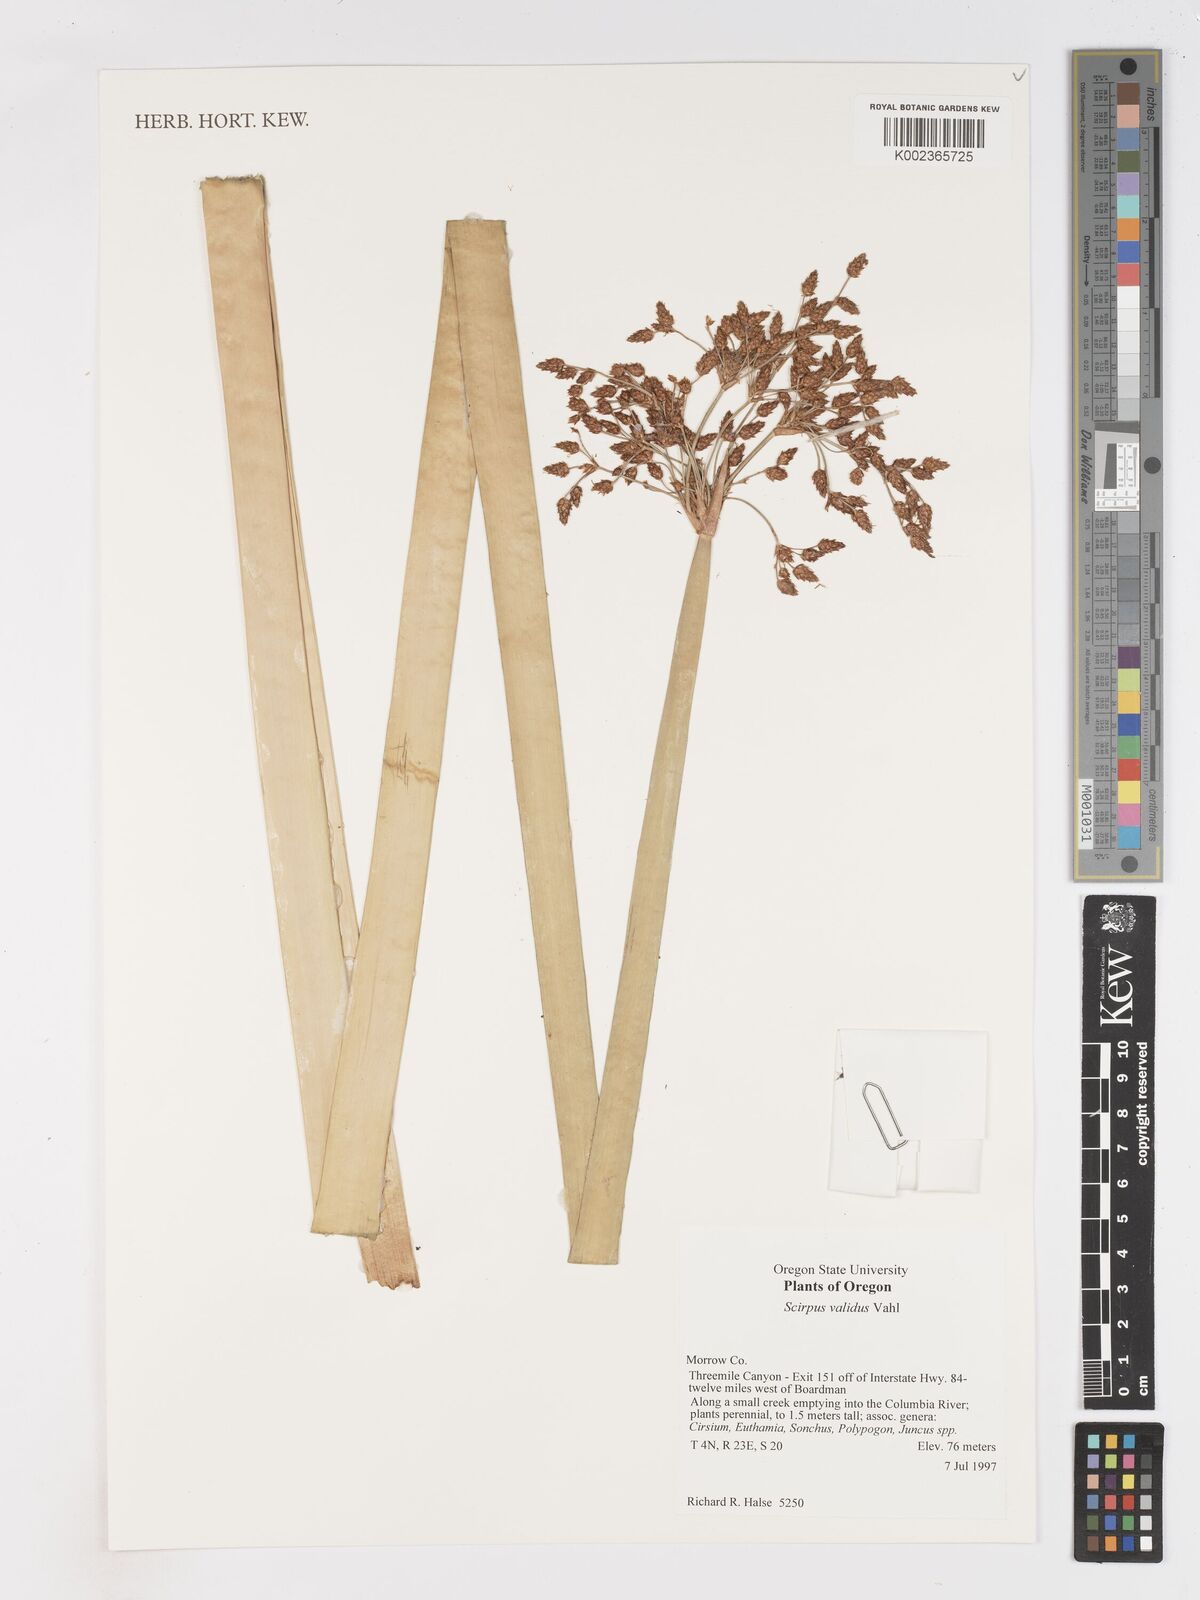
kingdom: Plantae
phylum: Tracheophyta
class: Liliopsida
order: Poales
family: Cyperaceae
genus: Schoenoplectus
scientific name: Schoenoplectus tabernaemontani
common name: Grey club-rush
